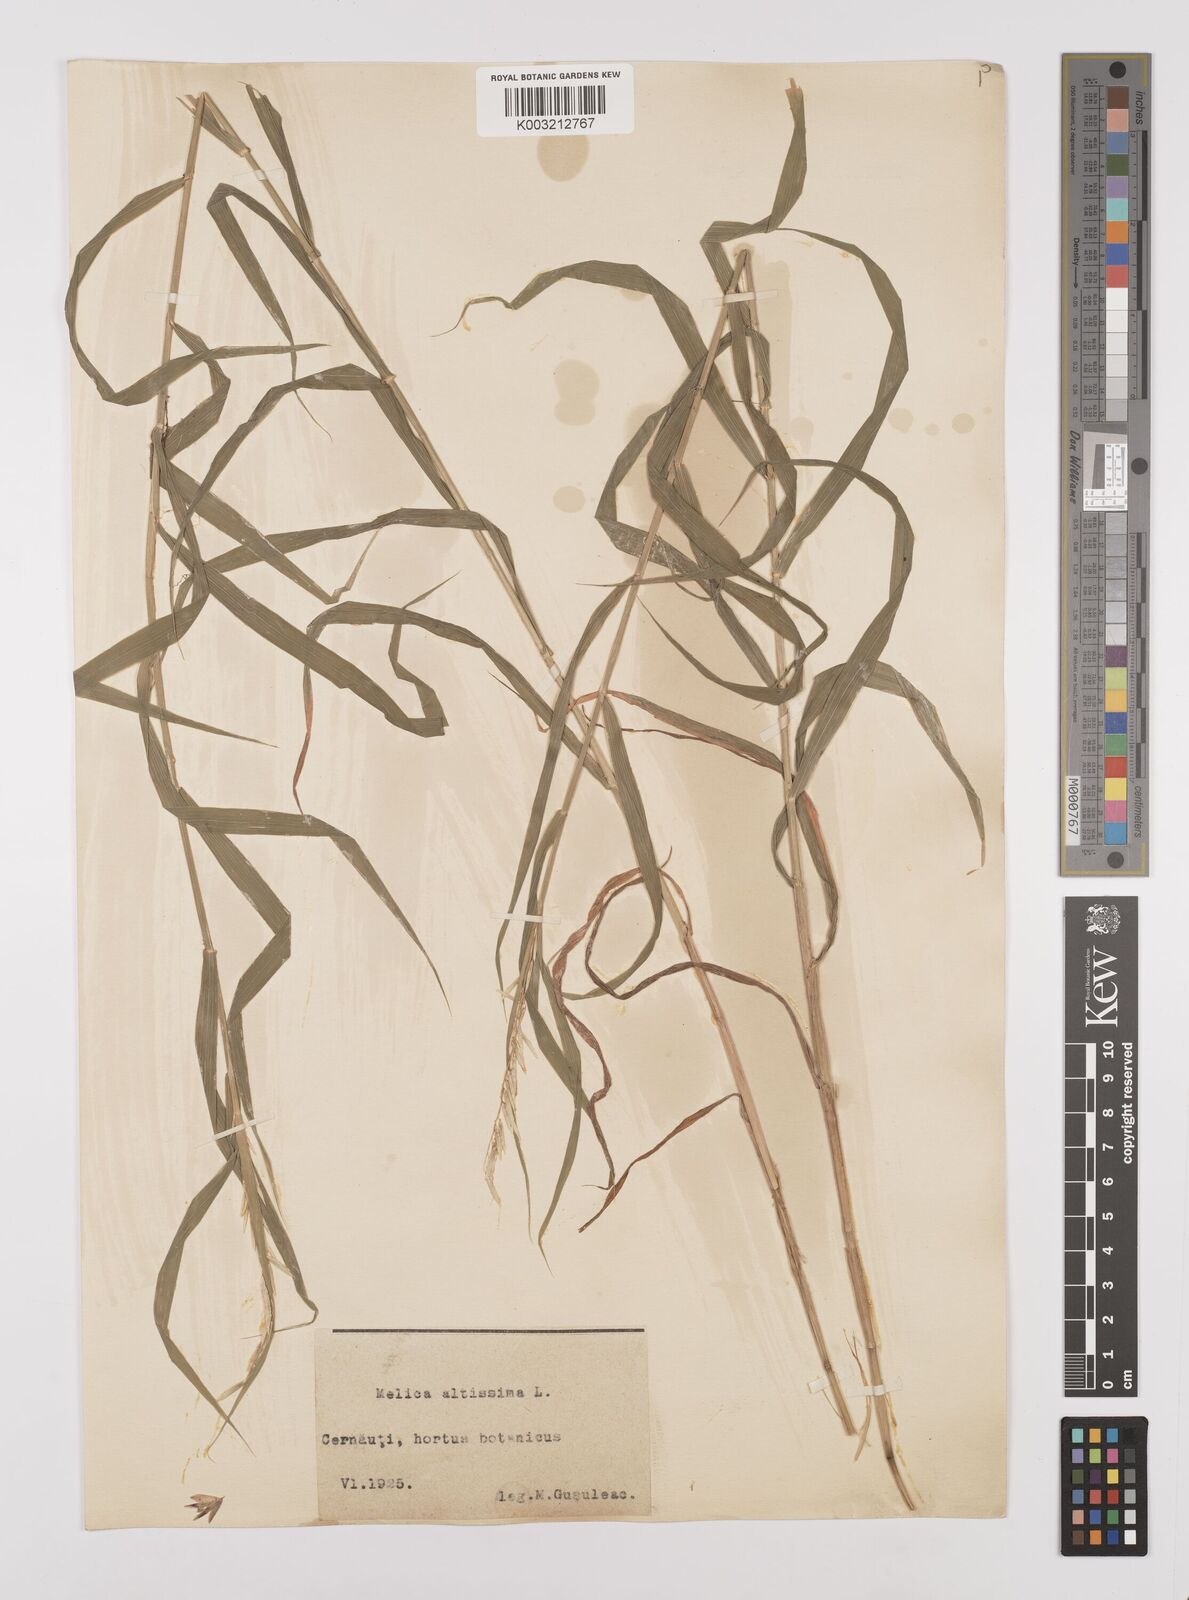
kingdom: Plantae
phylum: Tracheophyta
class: Liliopsida
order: Poales
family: Poaceae
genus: Melica
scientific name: Melica altissima
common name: Siberian melicgrass
